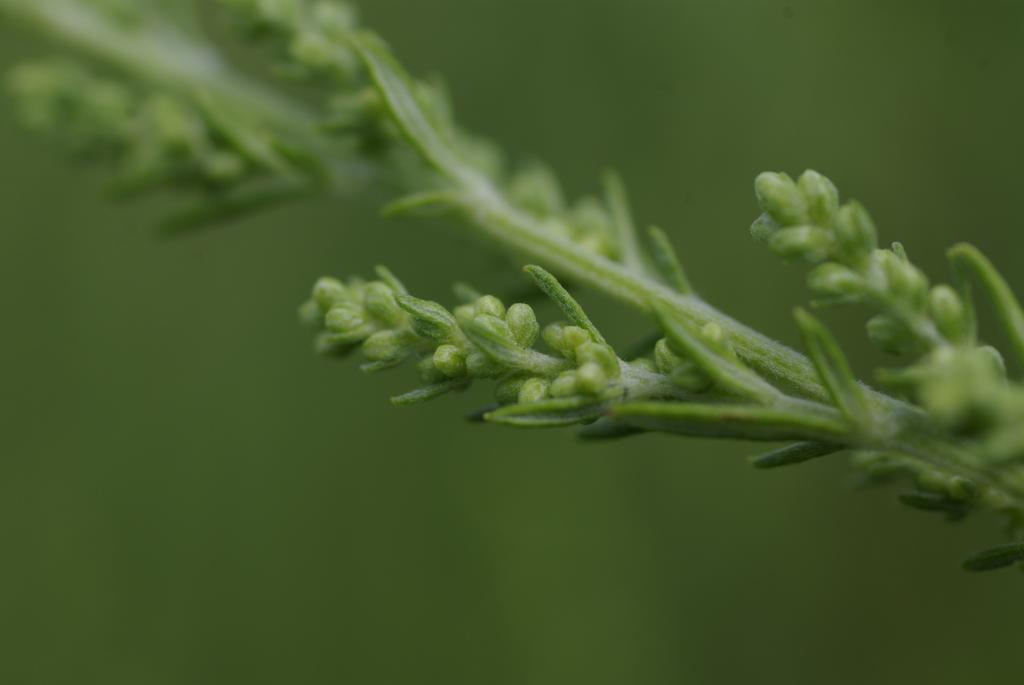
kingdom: Plantae
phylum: Tracheophyta
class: Magnoliopsida
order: Asterales
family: Asteraceae
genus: Artemisia
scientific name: Artemisia lancea
